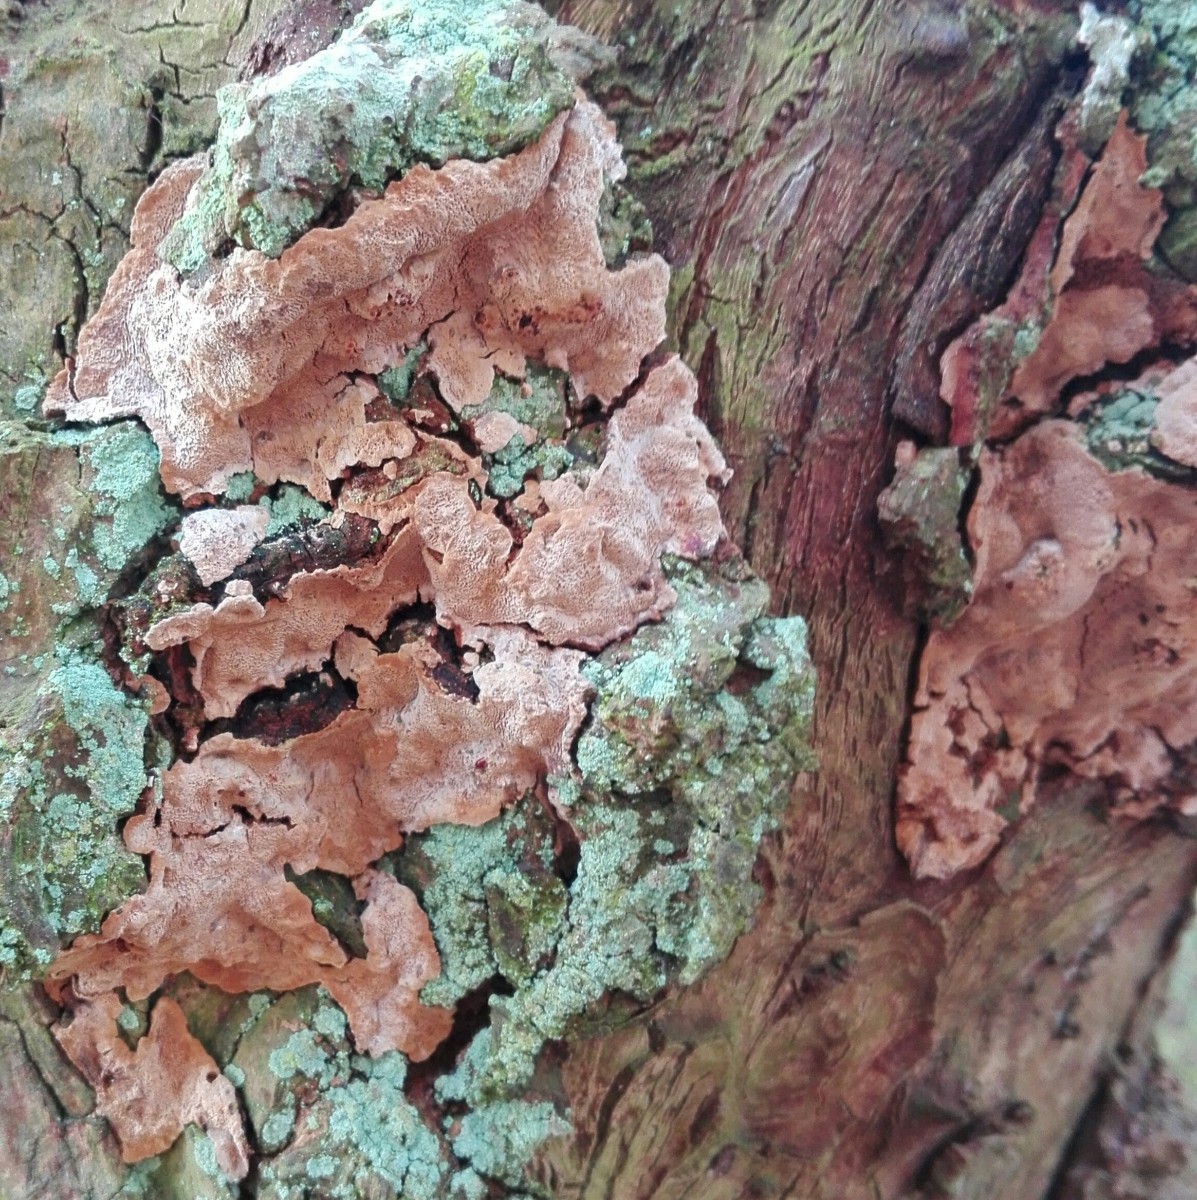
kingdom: Fungi
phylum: Basidiomycota
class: Agaricomycetes
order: Hymenochaetales
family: Hymenochaetaceae
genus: Phellinopsis
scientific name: Phellinopsis conchata
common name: pile-ildporesvamp
